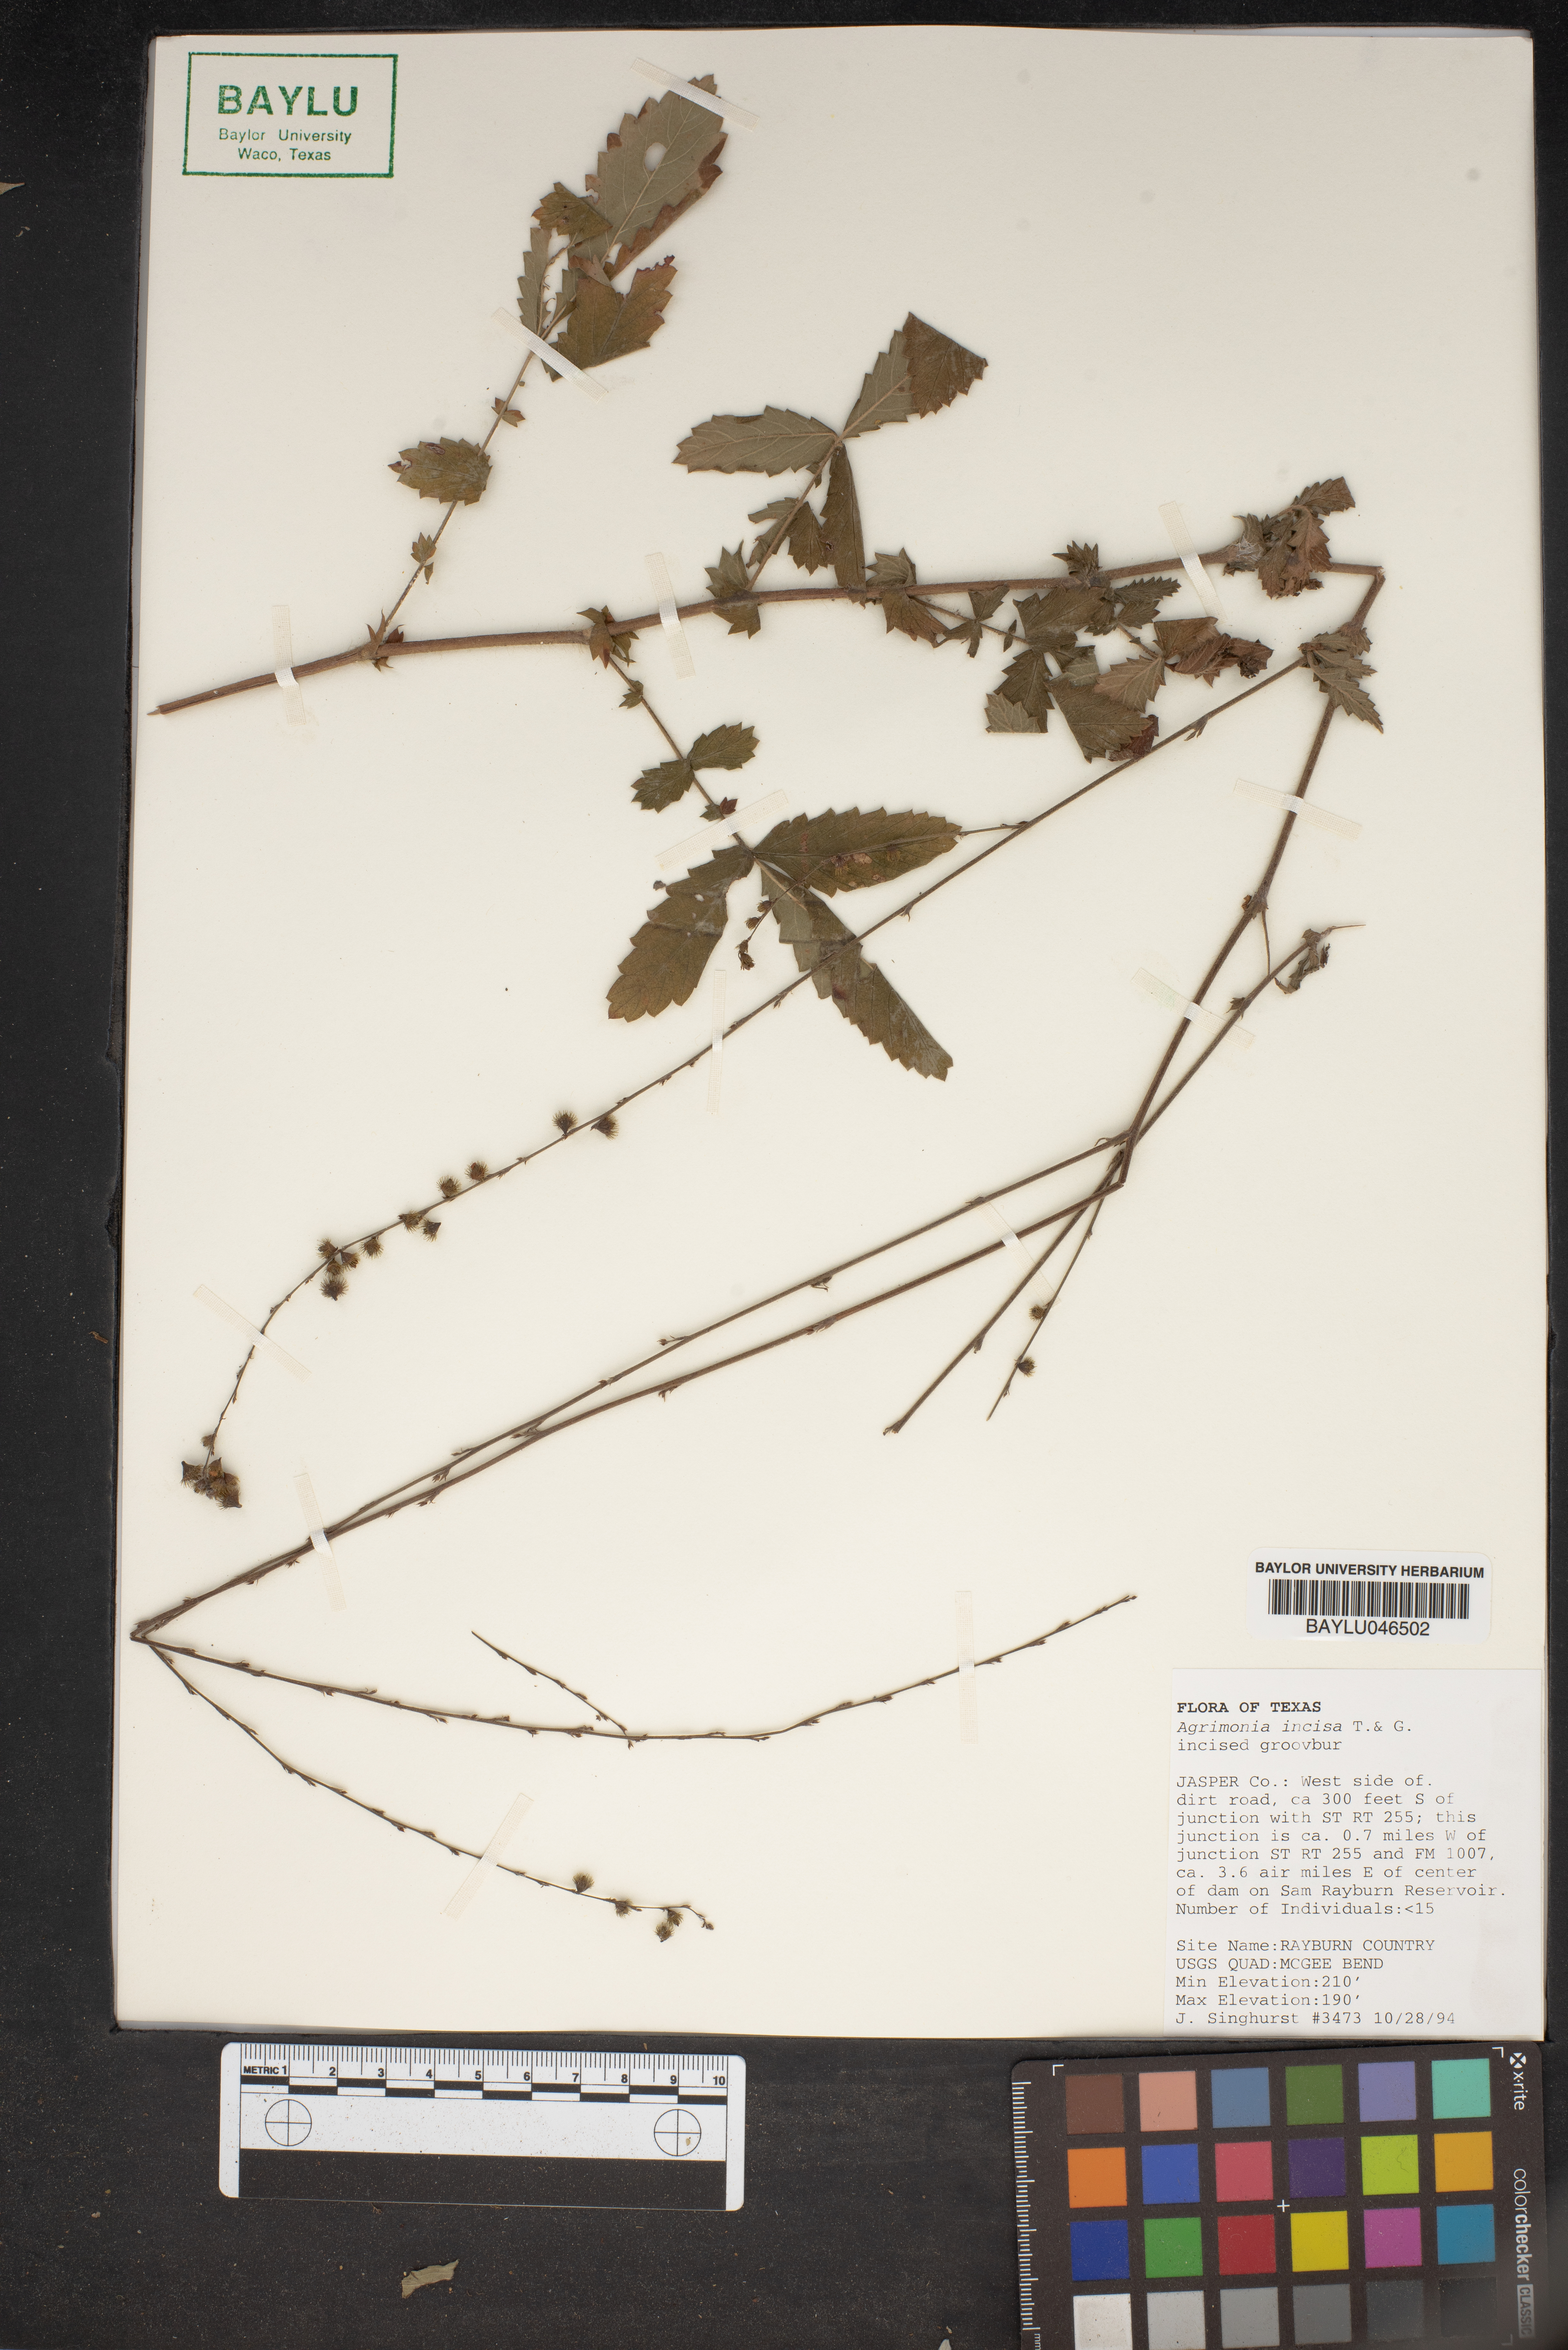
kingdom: Plantae
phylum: Tracheophyta
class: Magnoliopsida
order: Rosales
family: Rosaceae
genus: Agrimonia
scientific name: Agrimonia incisa
